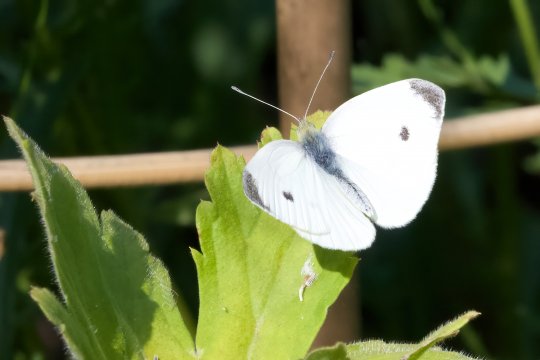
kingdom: Animalia
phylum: Arthropoda
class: Insecta
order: Lepidoptera
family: Pieridae
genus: Pieris
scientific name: Pieris rapae
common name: Cabbage White
